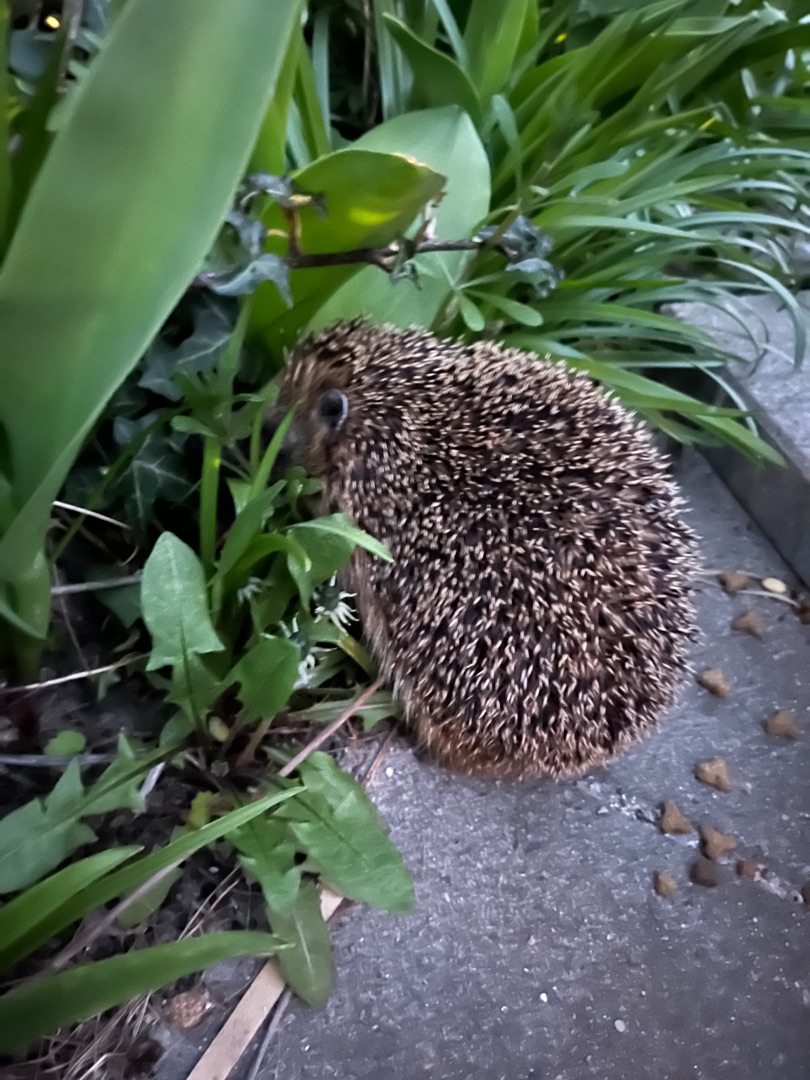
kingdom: Animalia
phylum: Chordata
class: Mammalia
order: Erinaceomorpha
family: Erinaceidae
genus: Erinaceus
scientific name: Erinaceus europaeus
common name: Pindsvin
